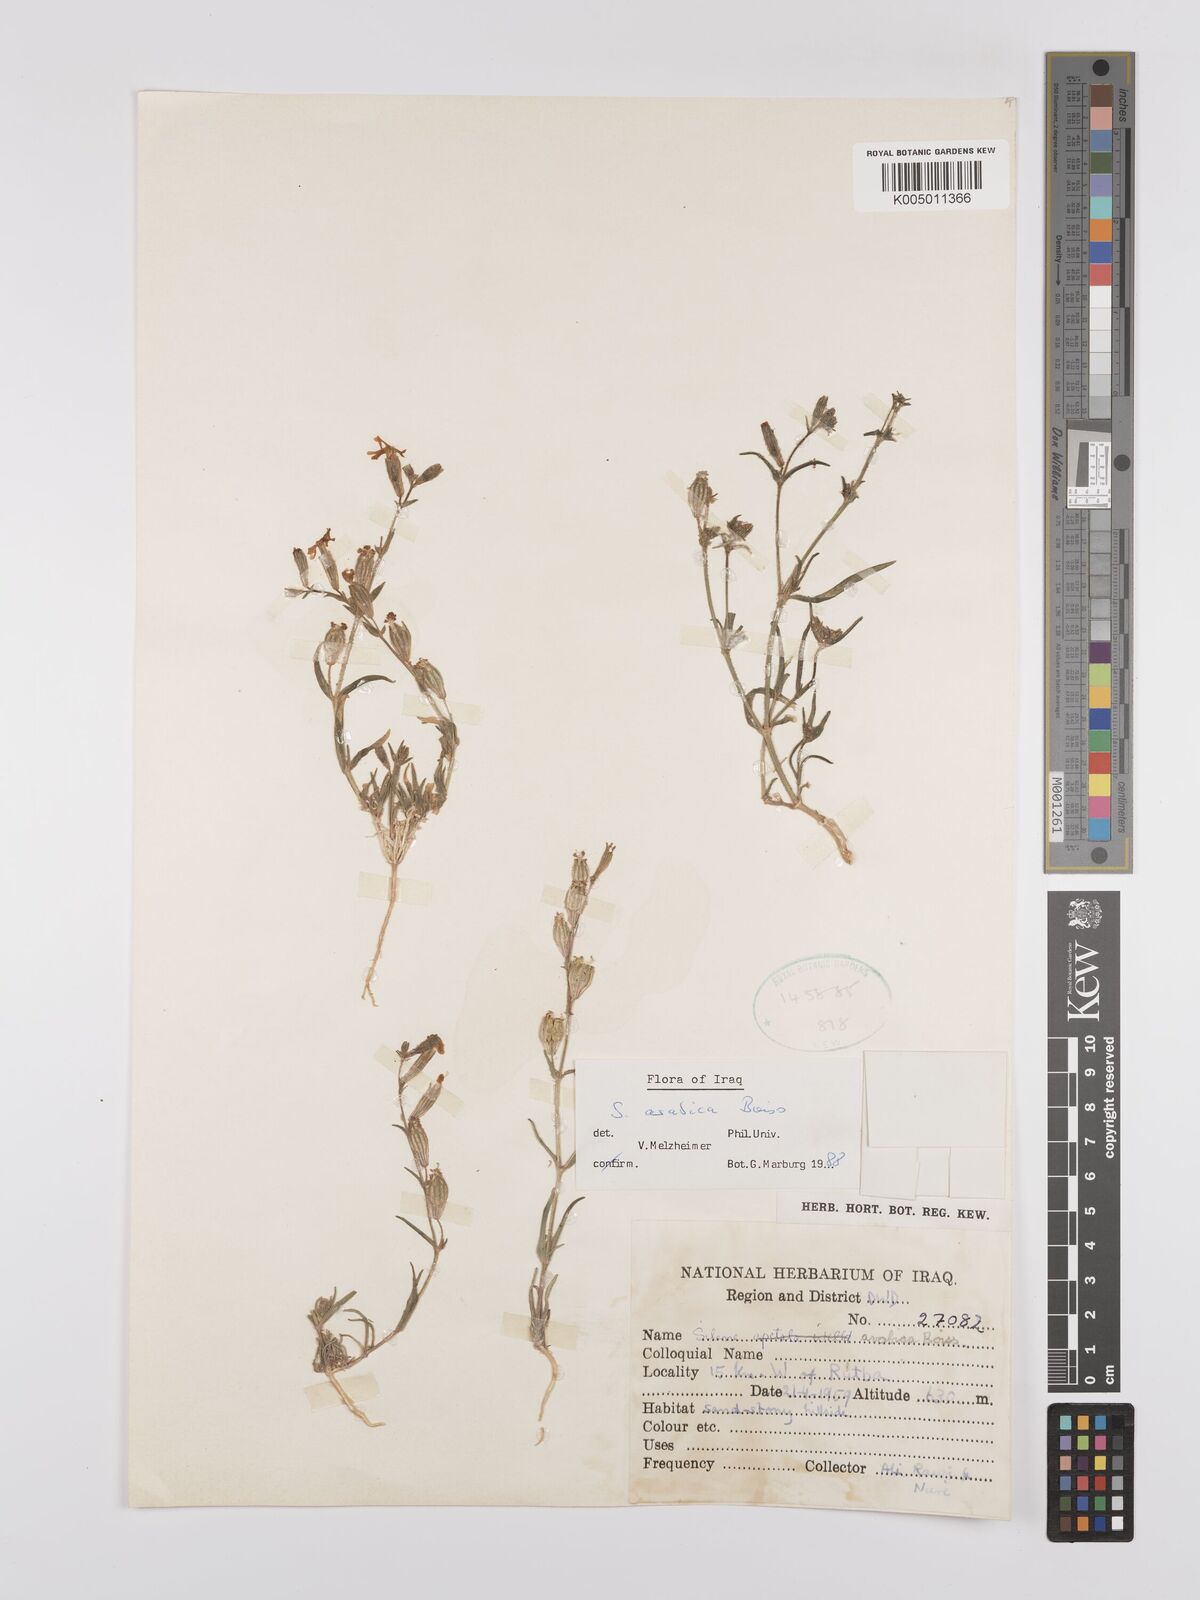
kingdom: Plantae
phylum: Tracheophyta
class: Magnoliopsida
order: Caryophyllales
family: Caryophyllaceae
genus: Silene
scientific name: Silene arabica
